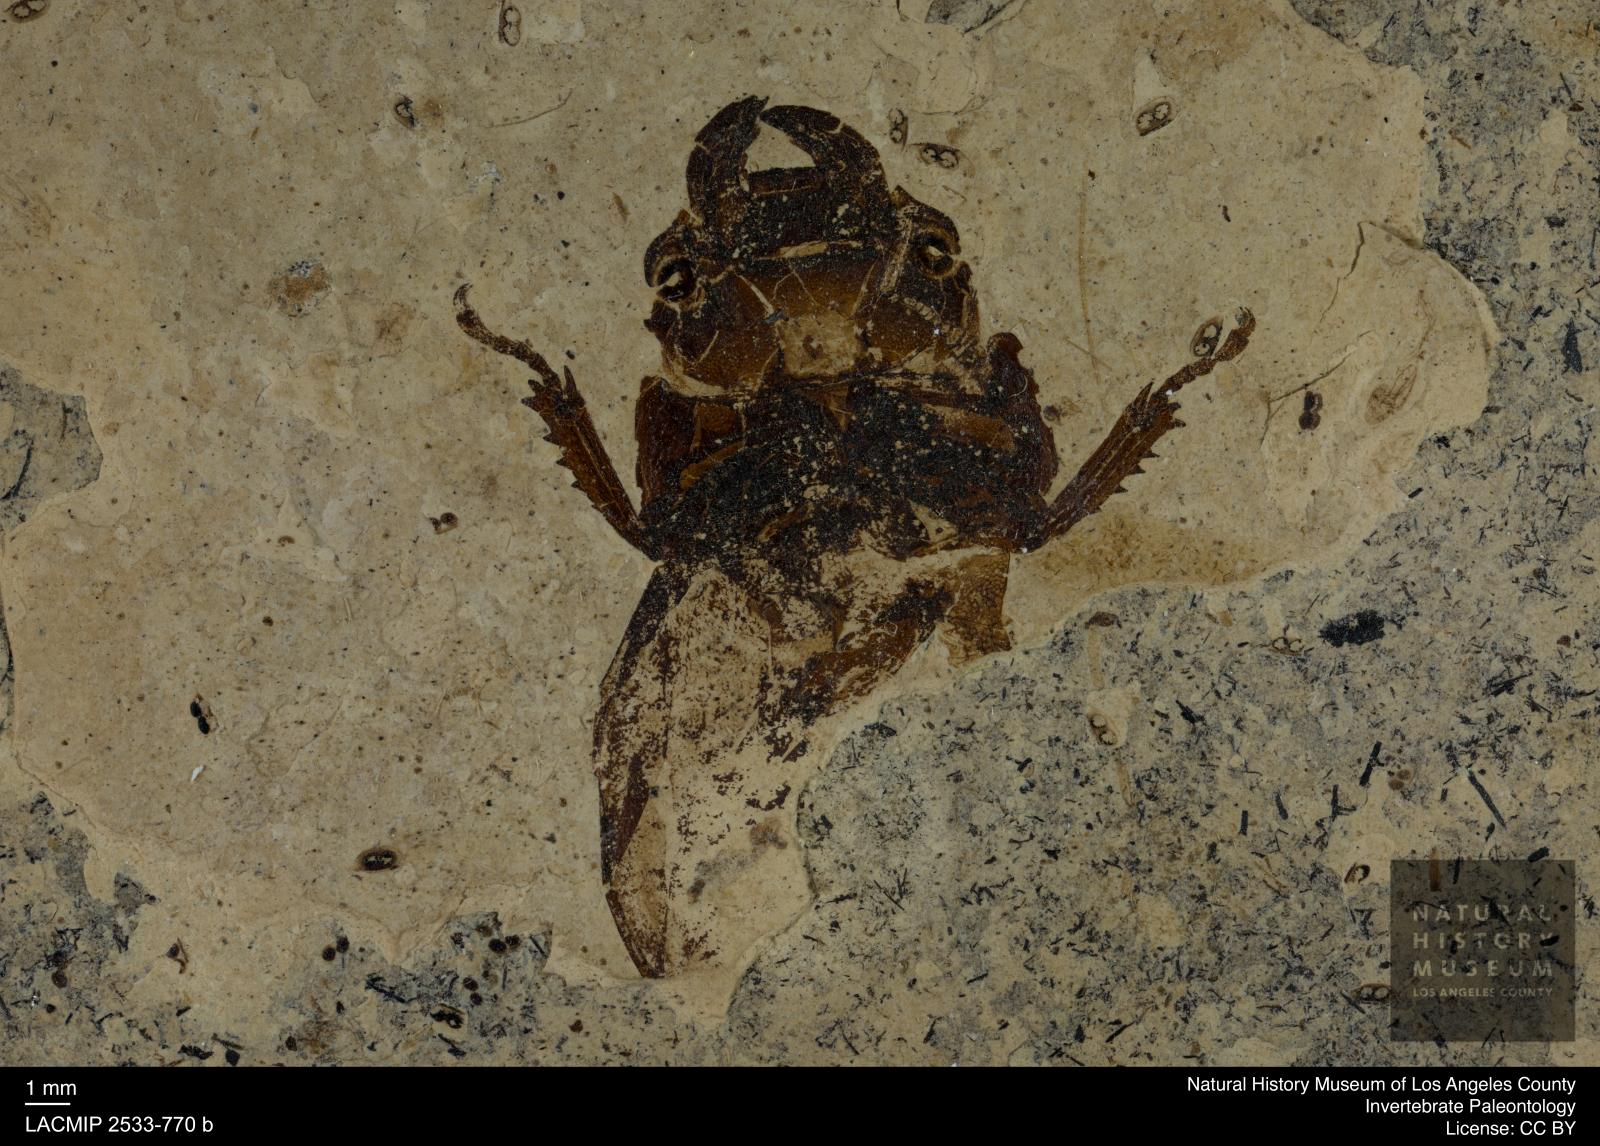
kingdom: Animalia
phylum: Arthropoda
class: Insecta
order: Coleoptera
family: Lucanidae
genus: Ceruchites
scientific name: Ceruchites hahnei
